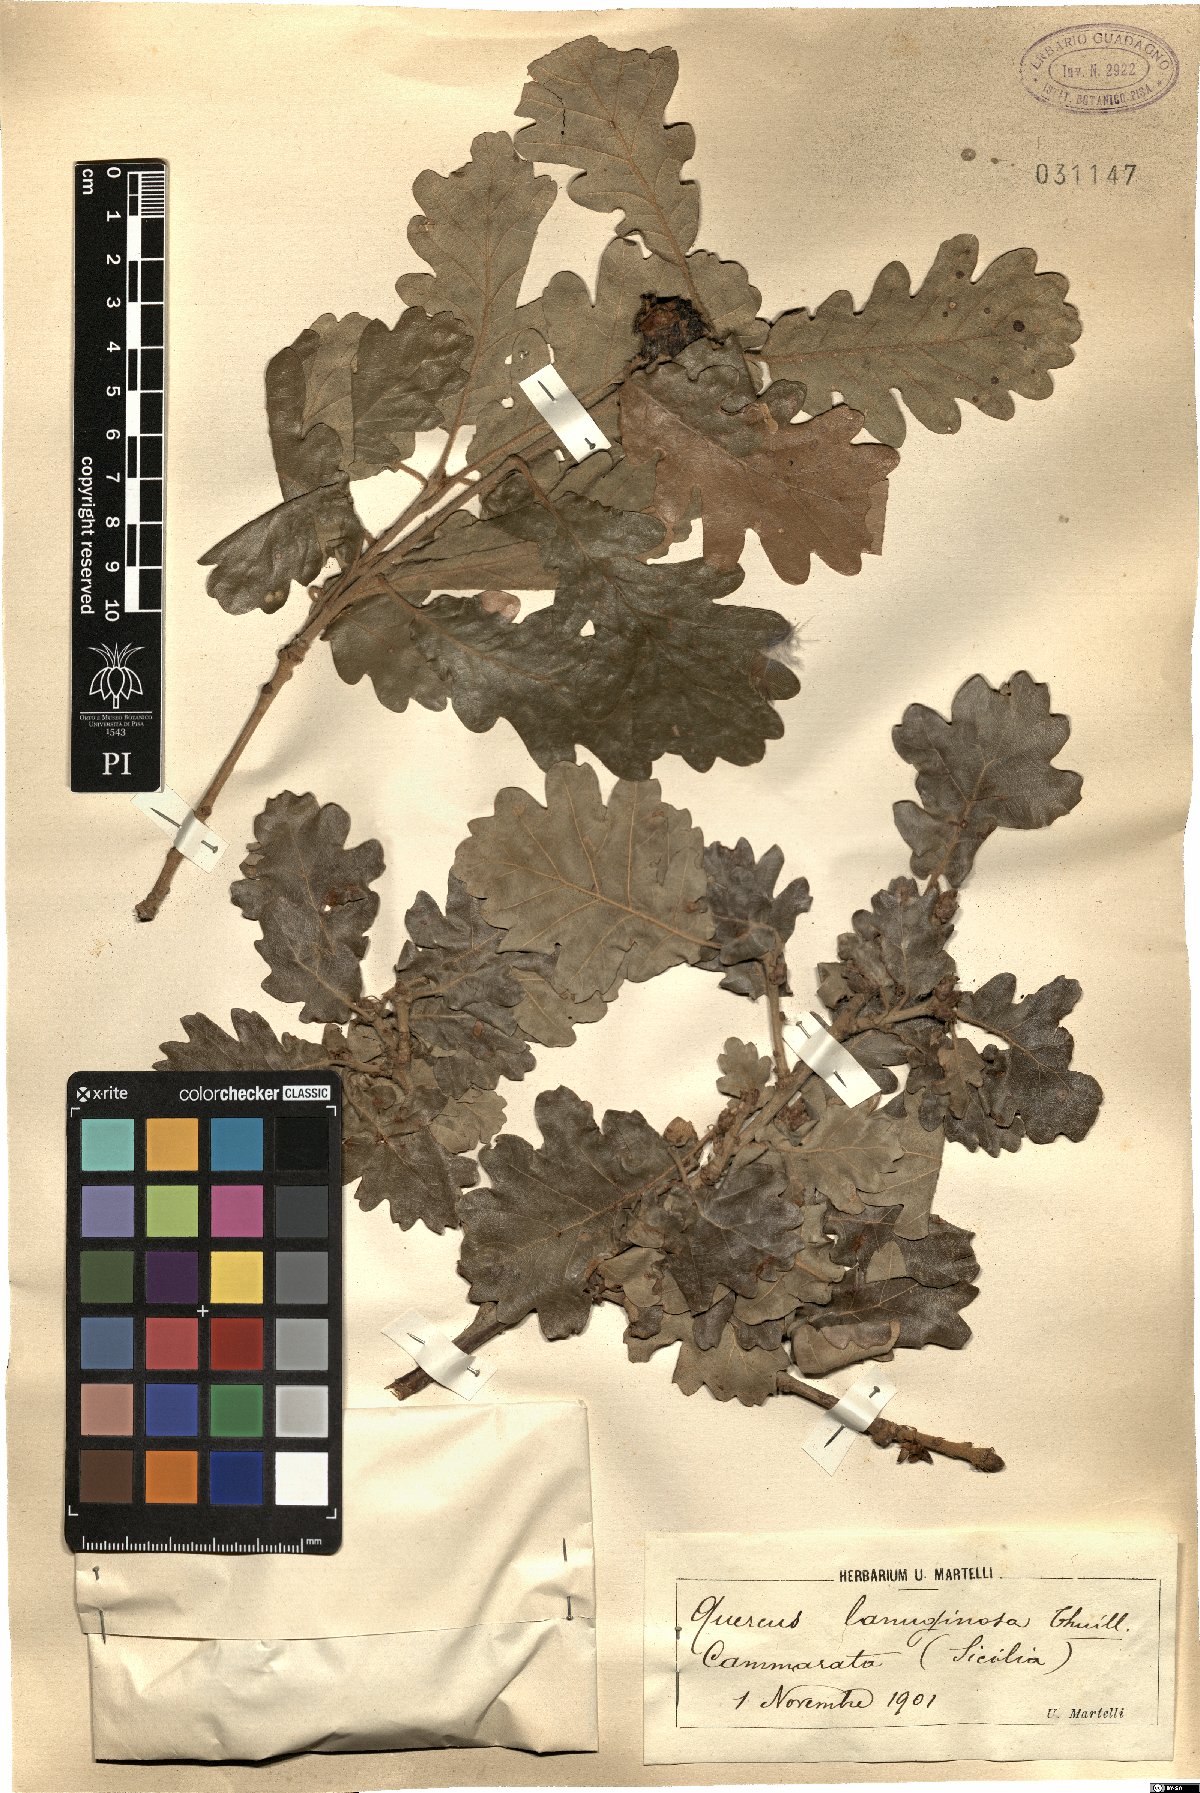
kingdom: Plantae
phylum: Tracheophyta
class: Magnoliopsida
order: Fagales
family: Fagaceae
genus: Quercus
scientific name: Quercus pubescens
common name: Downy oak
